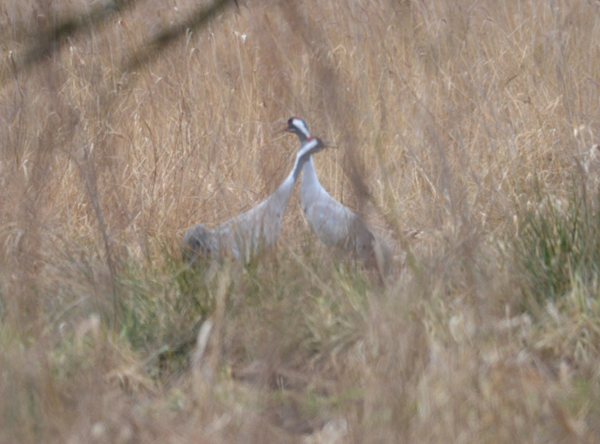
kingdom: Animalia
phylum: Chordata
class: Aves
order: Gruiformes
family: Gruidae
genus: Grus
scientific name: Grus grus
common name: Common crane
